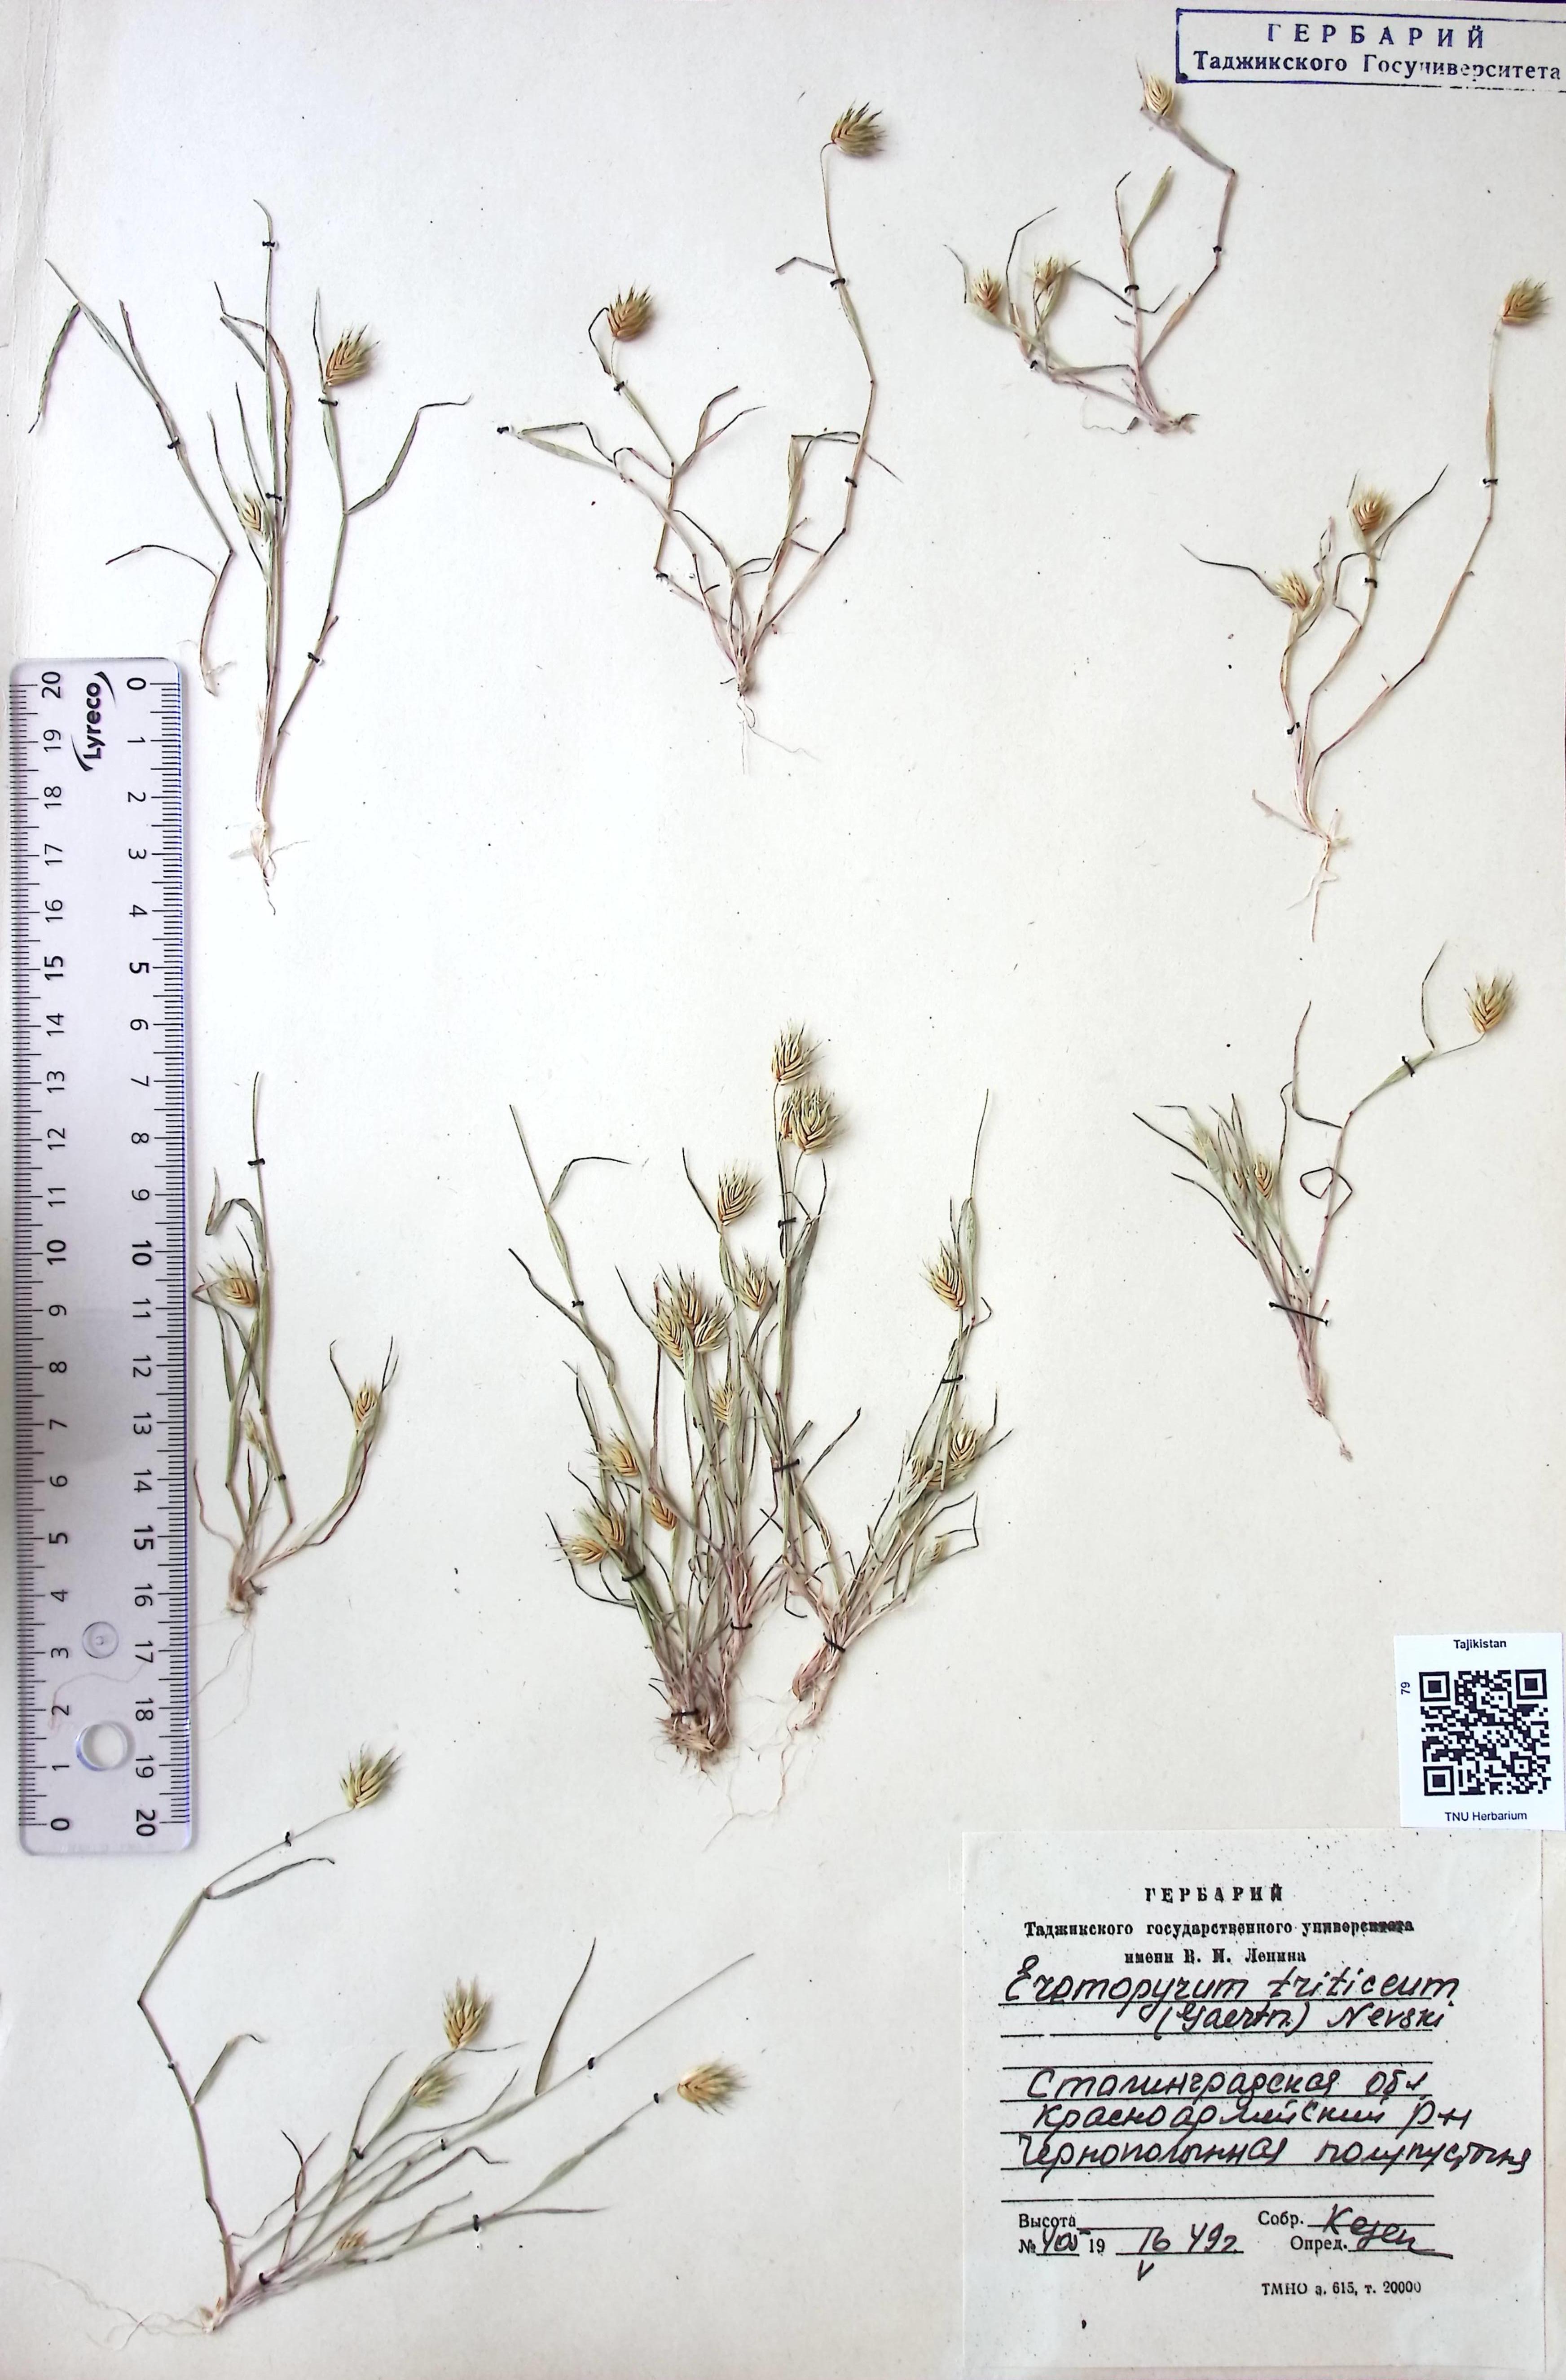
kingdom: Plantae
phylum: Tracheophyta
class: Liliopsida
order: Poales
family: Poaceae
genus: Eremopyrum
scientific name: Eremopyrum triticeum
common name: Annual wheatgrass
